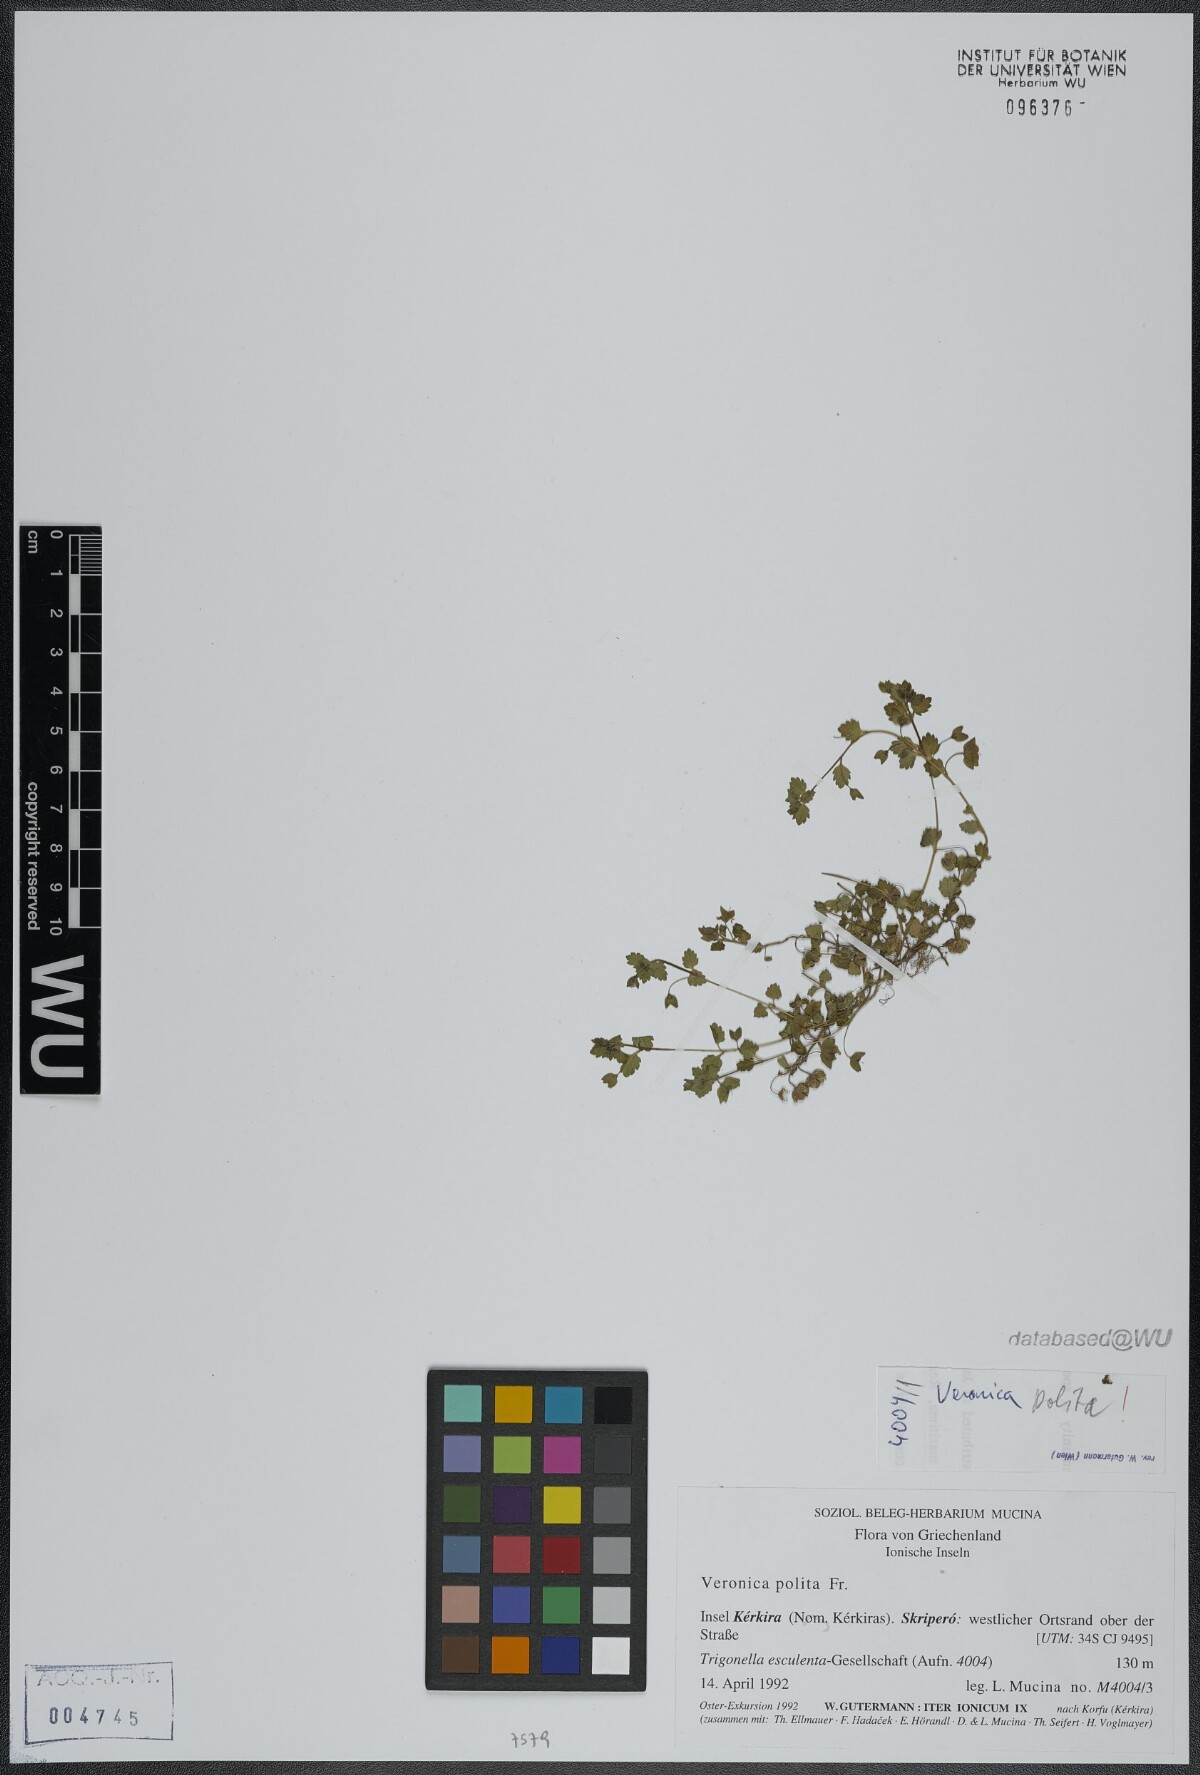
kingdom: Plantae
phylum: Tracheophyta
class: Magnoliopsida
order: Lamiales
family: Plantaginaceae
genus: Veronica
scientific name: Veronica polita
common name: Grey field-speedwell
